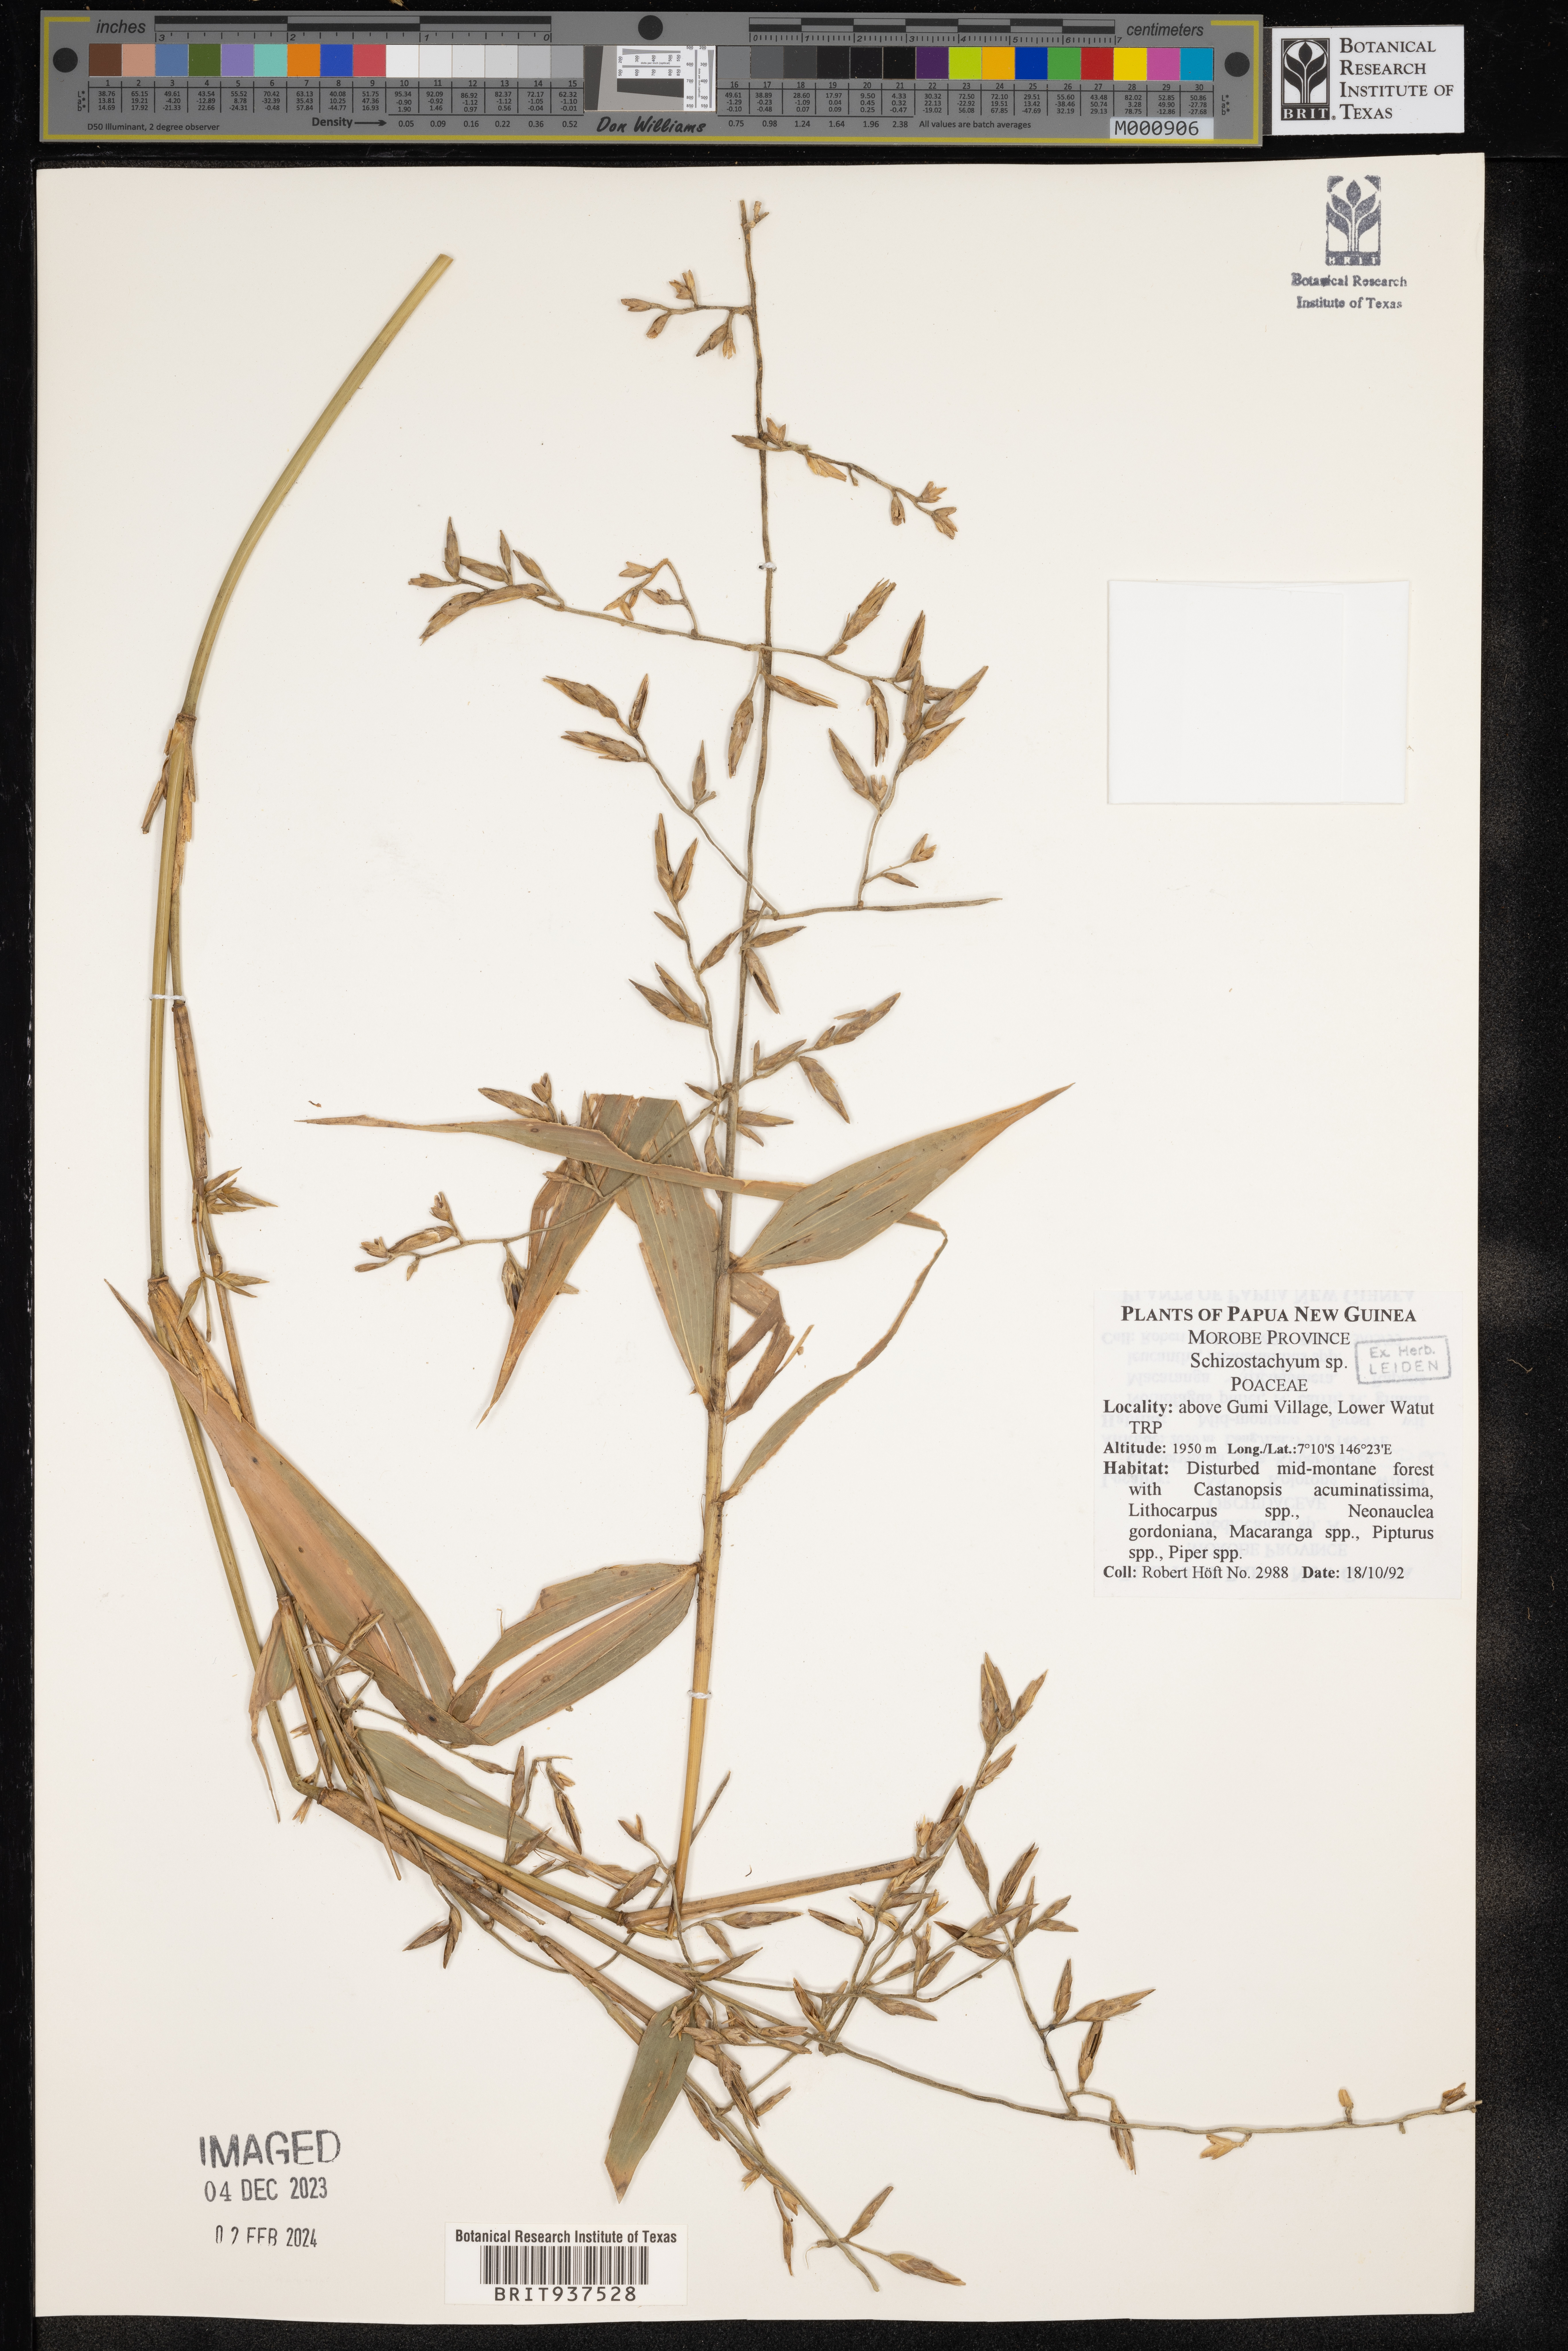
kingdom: Plantae
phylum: Tracheophyta
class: Liliopsida
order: Poales
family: Poaceae
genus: Schizostachyum
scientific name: Schizostachyum
